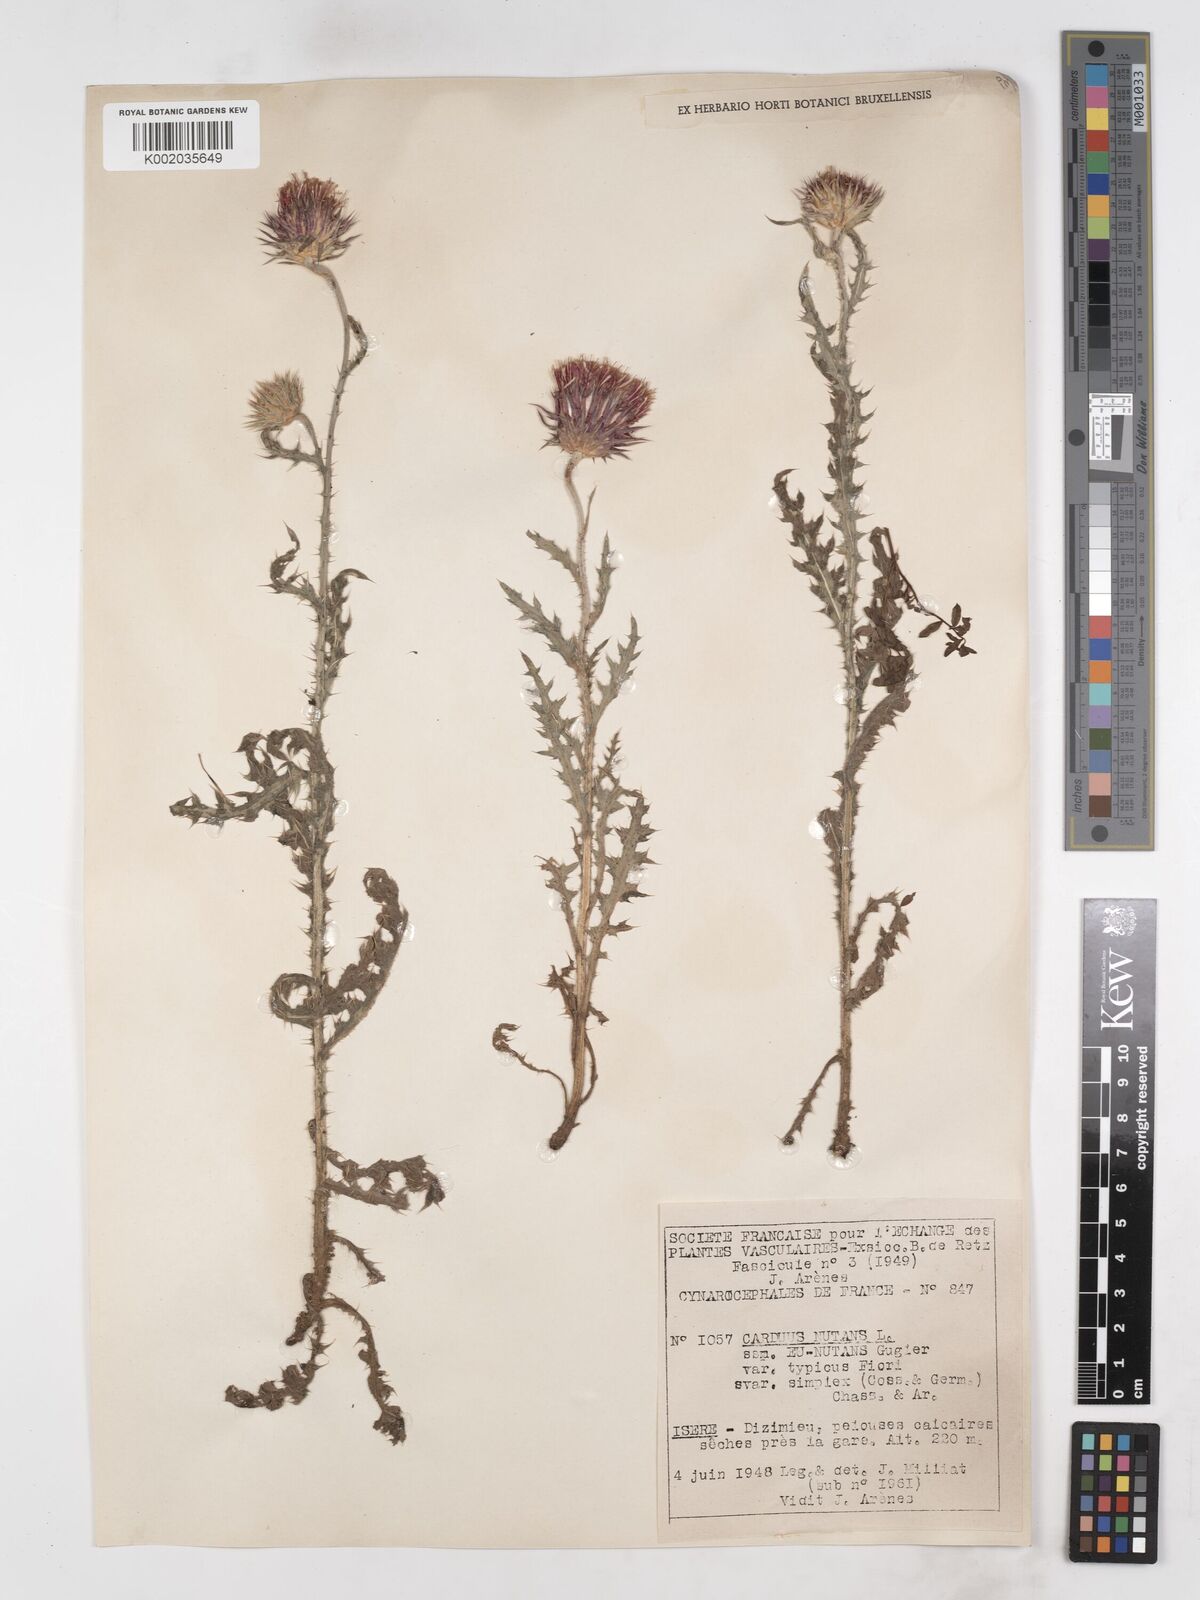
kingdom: Plantae
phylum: Tracheophyta
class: Magnoliopsida
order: Asterales
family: Asteraceae
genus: Carduus
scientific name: Carduus nutans
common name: Musk thistle
